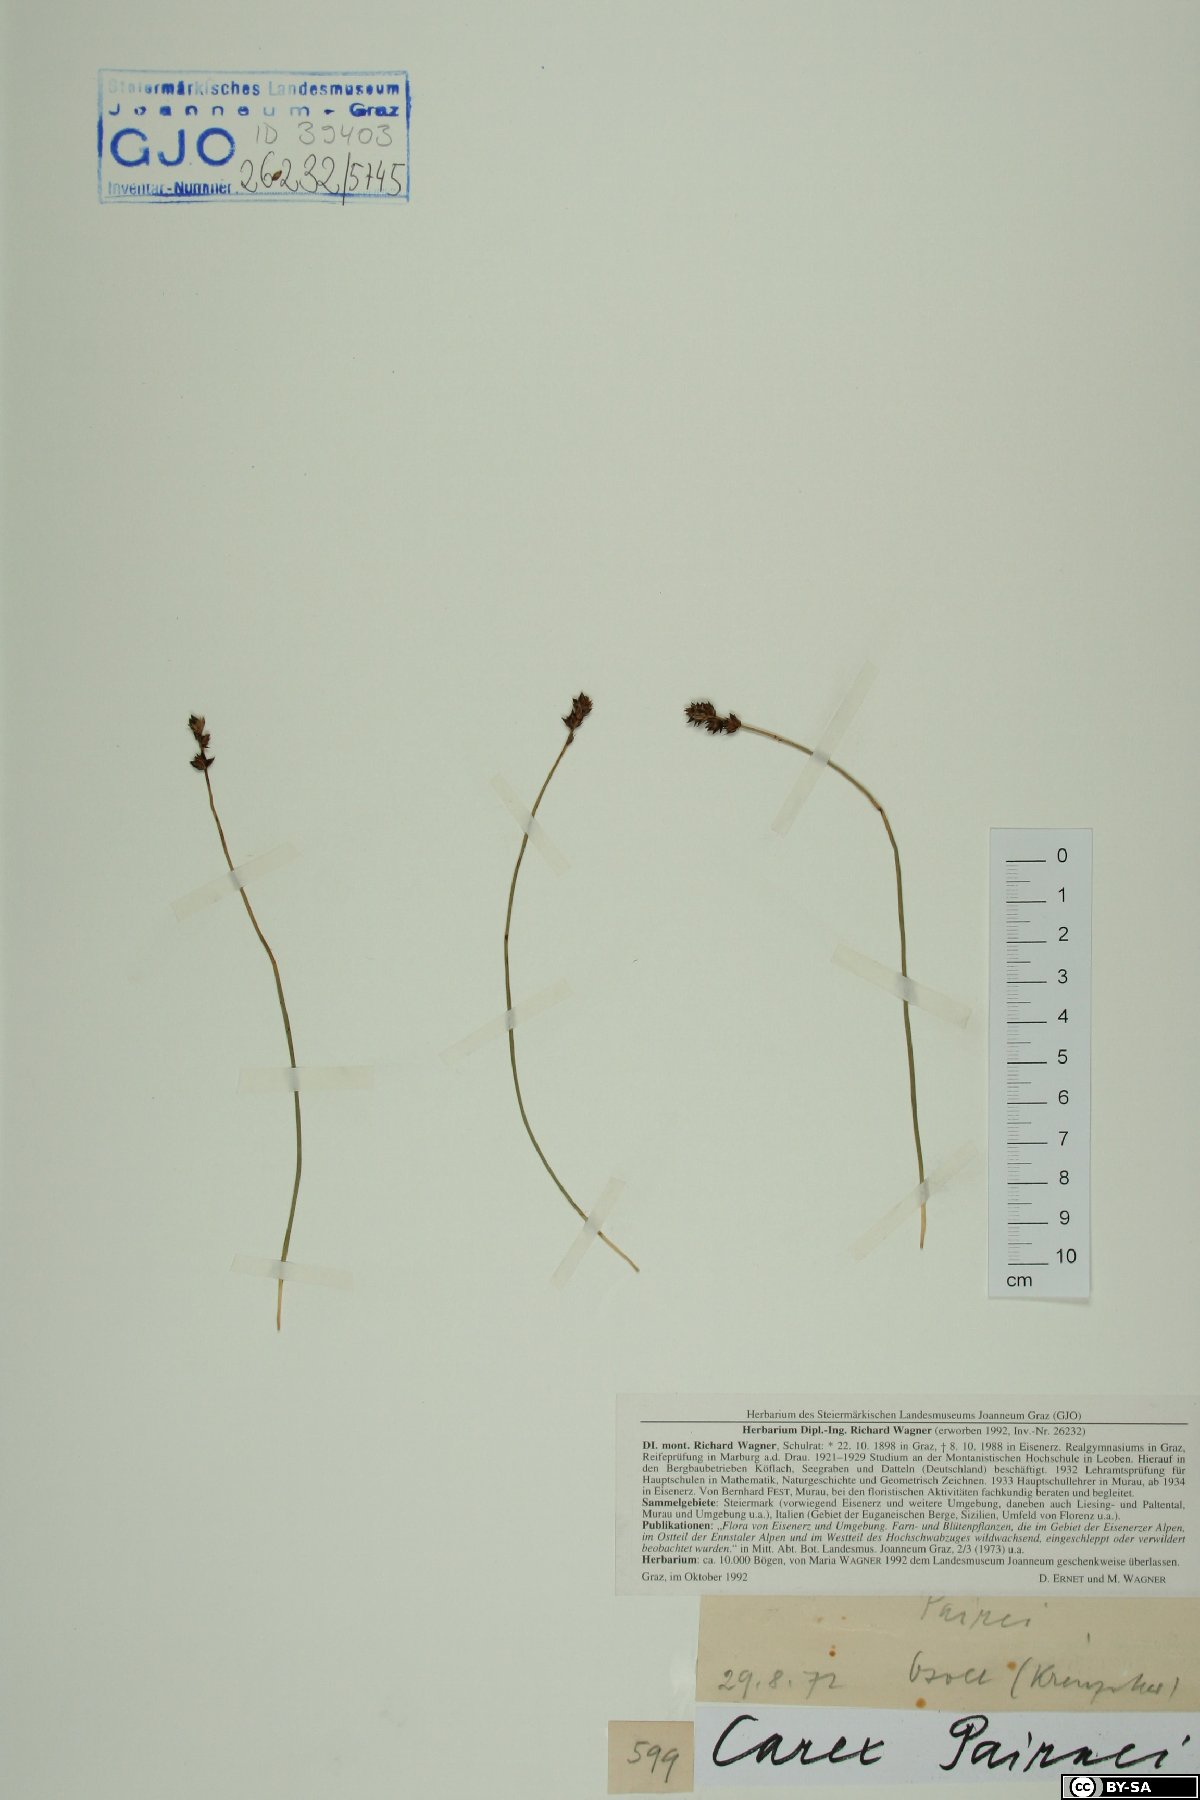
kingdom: Plantae
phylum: Tracheophyta
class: Liliopsida
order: Poales
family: Cyperaceae
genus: Carex
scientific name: Carex pairae
